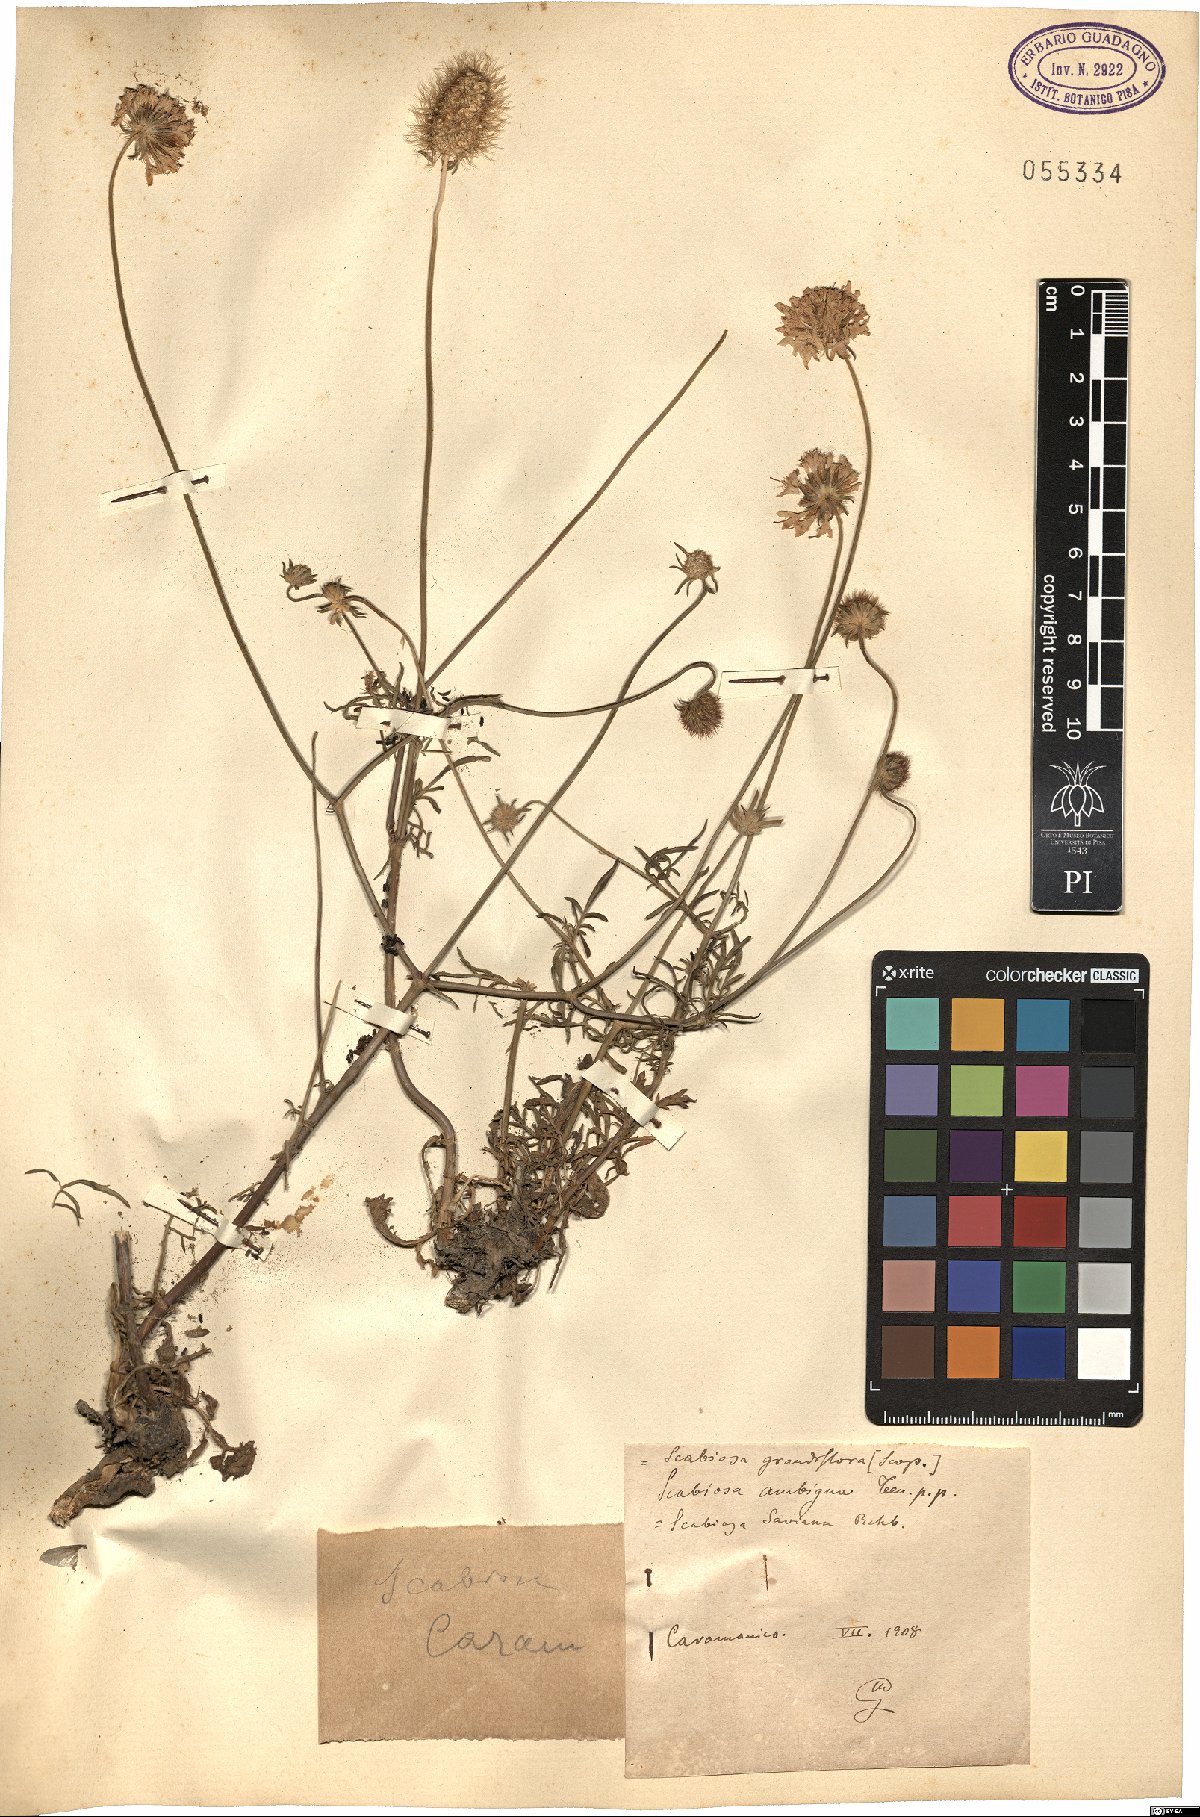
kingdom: Plantae
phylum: Tracheophyta
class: Magnoliopsida
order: Dipsacales
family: Caprifoliaceae
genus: Sixalix
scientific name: Sixalix maritima
